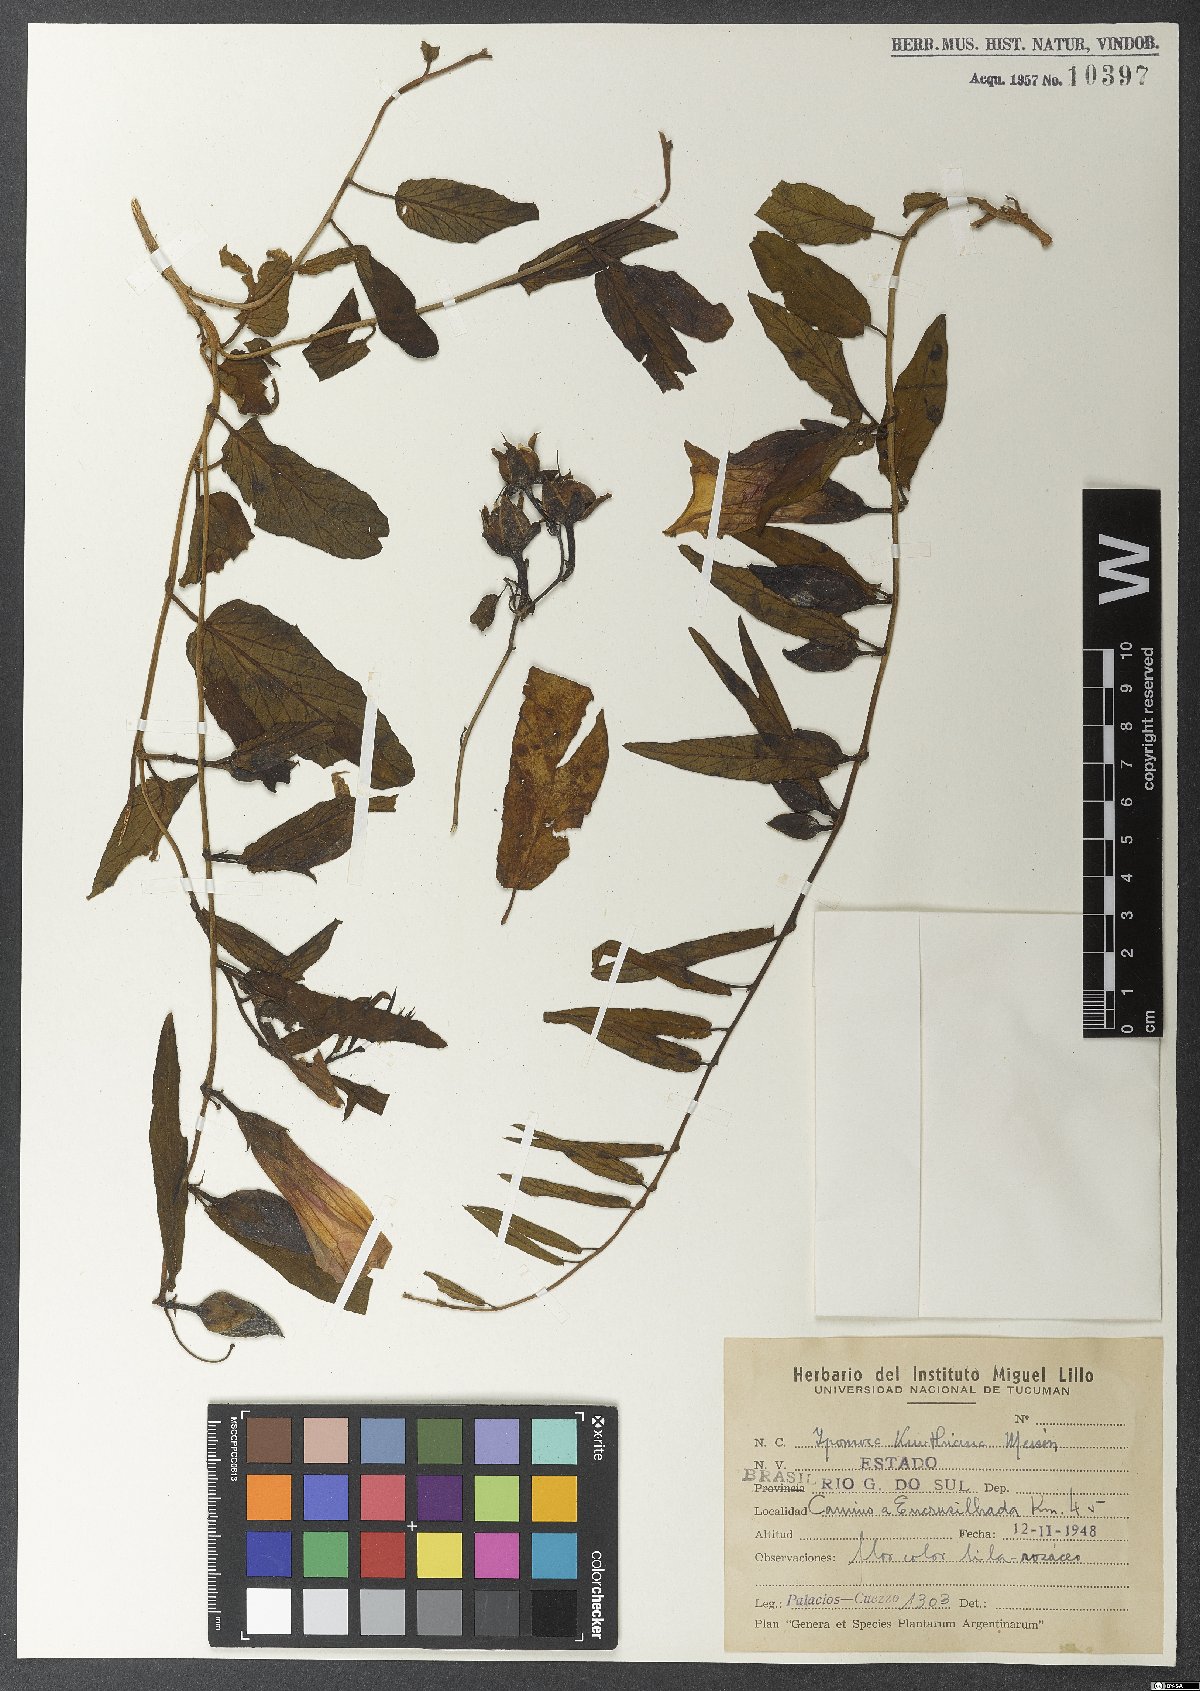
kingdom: Plantae
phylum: Tracheophyta
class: Magnoliopsida
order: Solanales
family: Convolvulaceae
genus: Ipomoea
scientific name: Ipomoea procumbens
